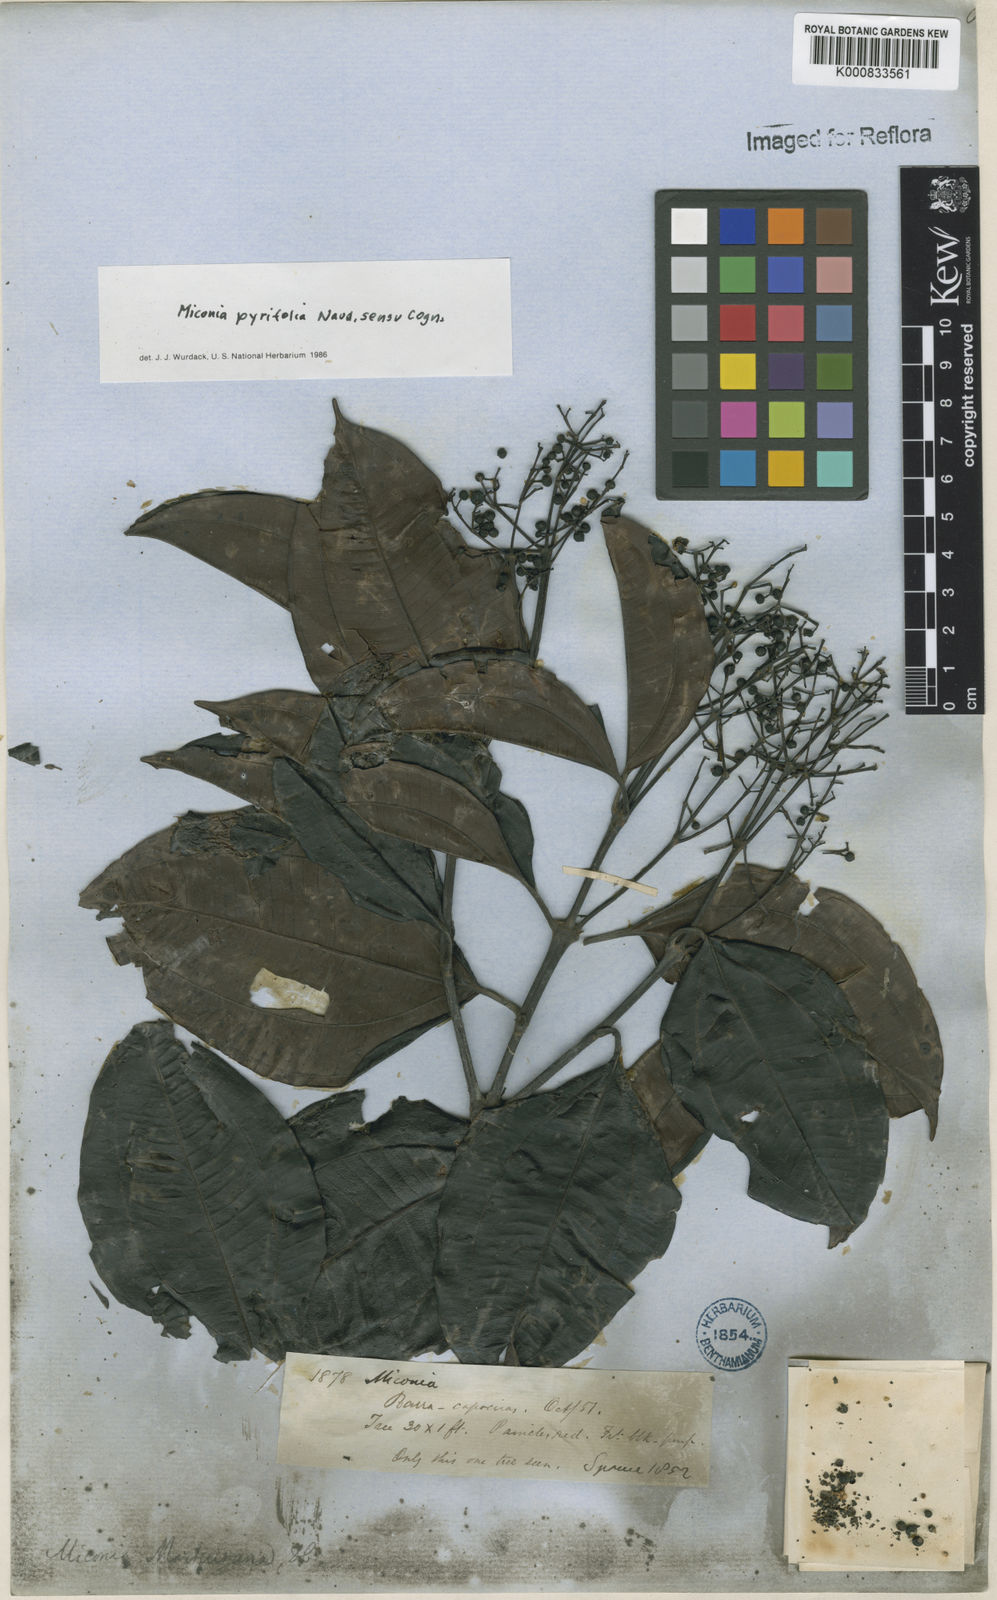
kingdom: Plantae
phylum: Tracheophyta
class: Magnoliopsida
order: Myrtales
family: Melastomataceae
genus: Miconia
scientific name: Miconia pyrifolia
